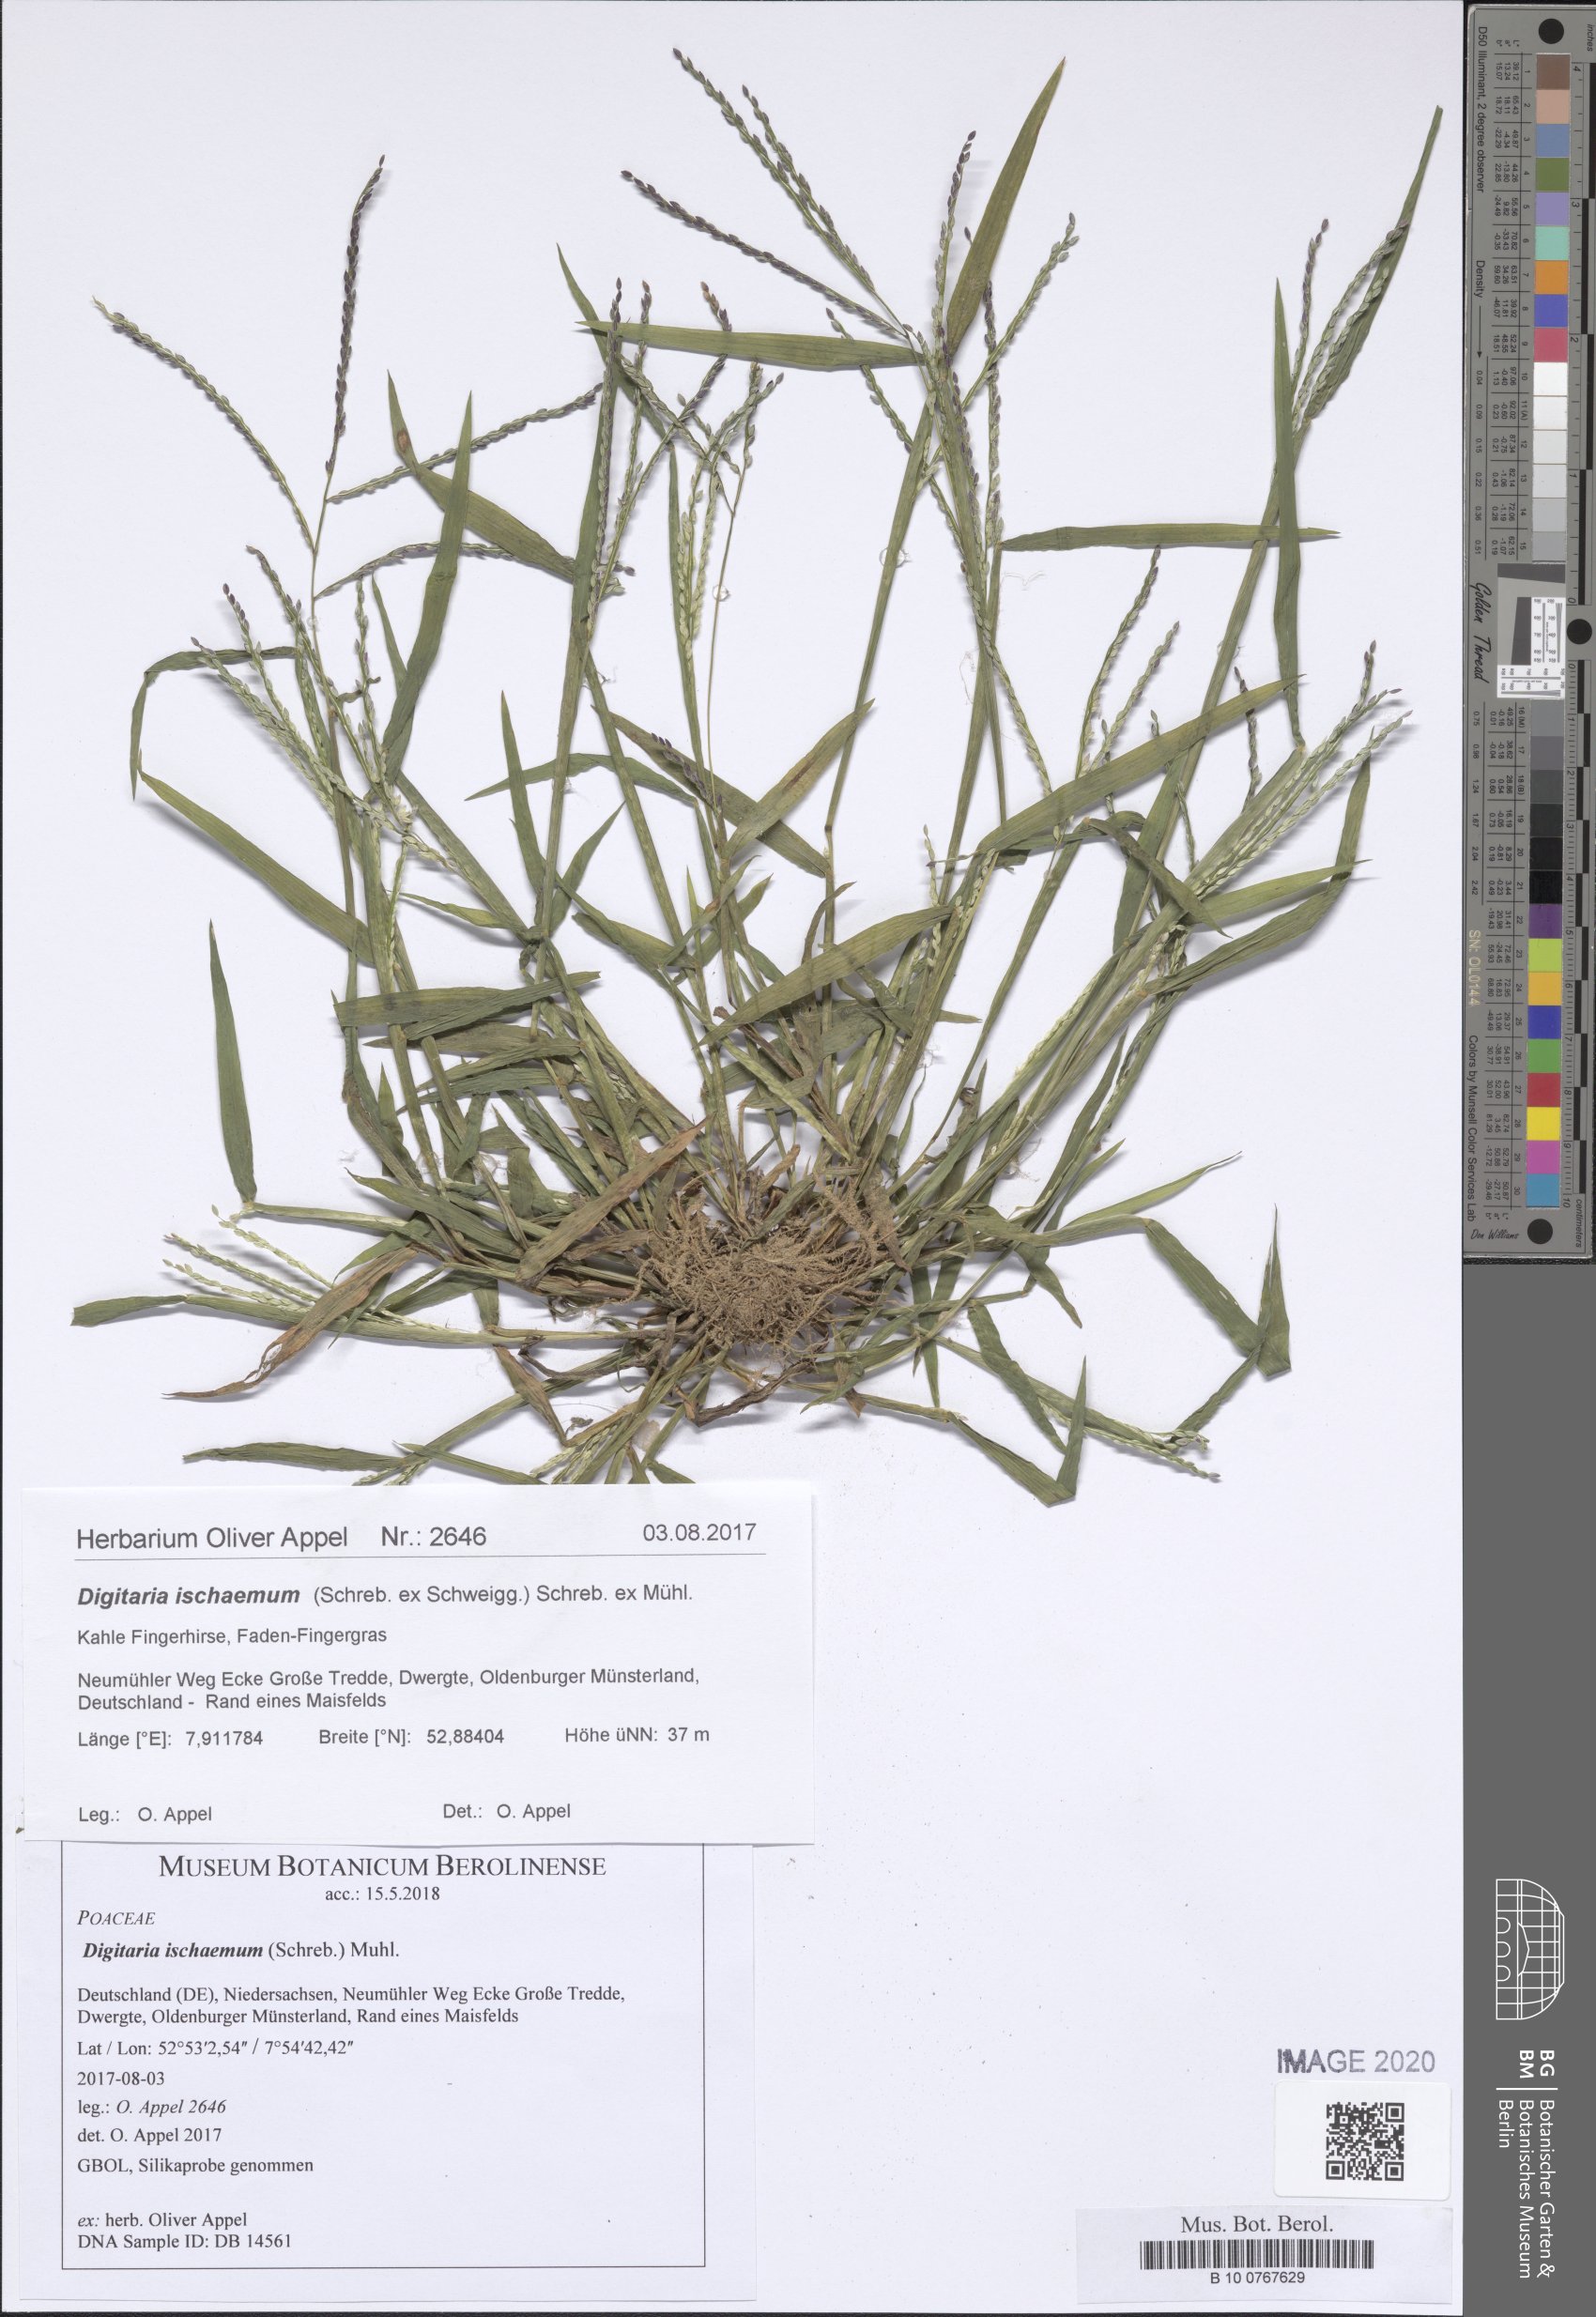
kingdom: Plantae
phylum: Tracheophyta
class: Liliopsida
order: Poales
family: Poaceae
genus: Digitaria
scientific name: Digitaria ischaemum
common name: Smooth crabgrass
